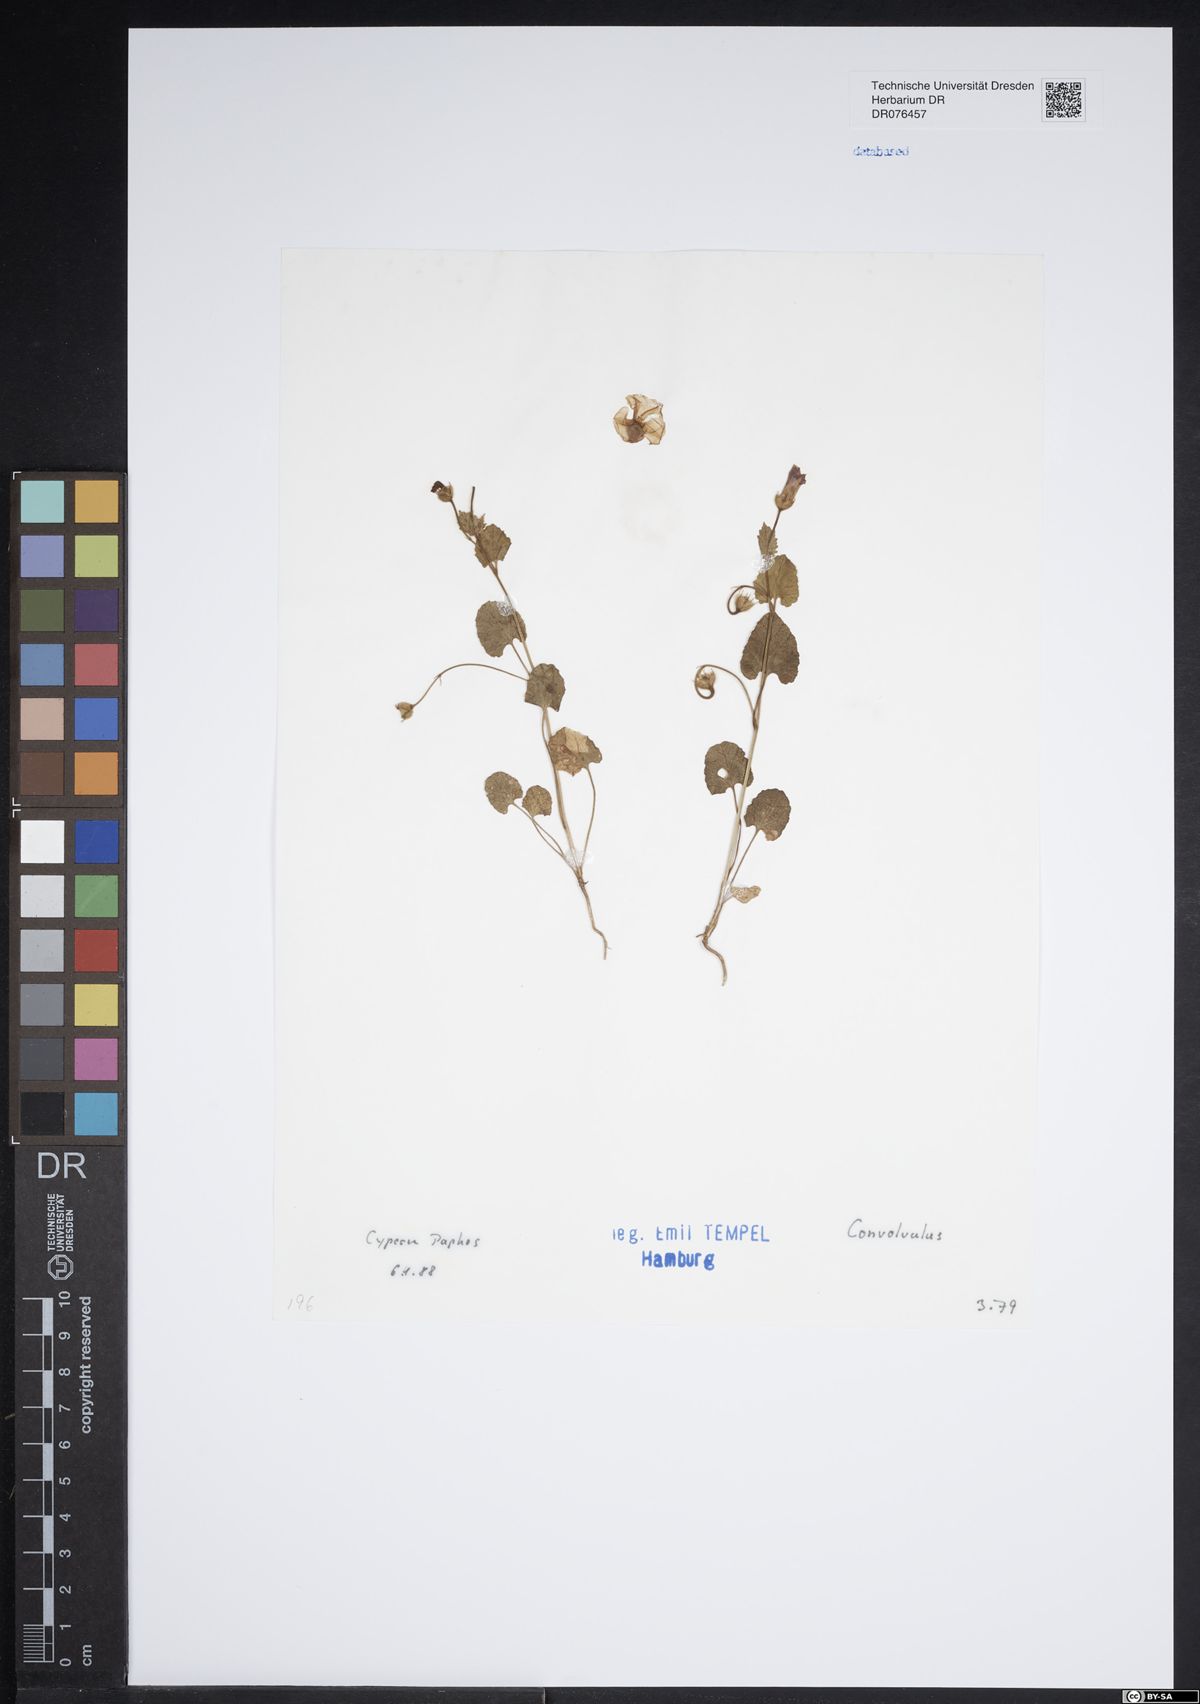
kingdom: Plantae
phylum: Tracheophyta
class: Magnoliopsida
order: Solanales
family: Convolvulaceae
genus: Convolvulus
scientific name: Convolvulus
